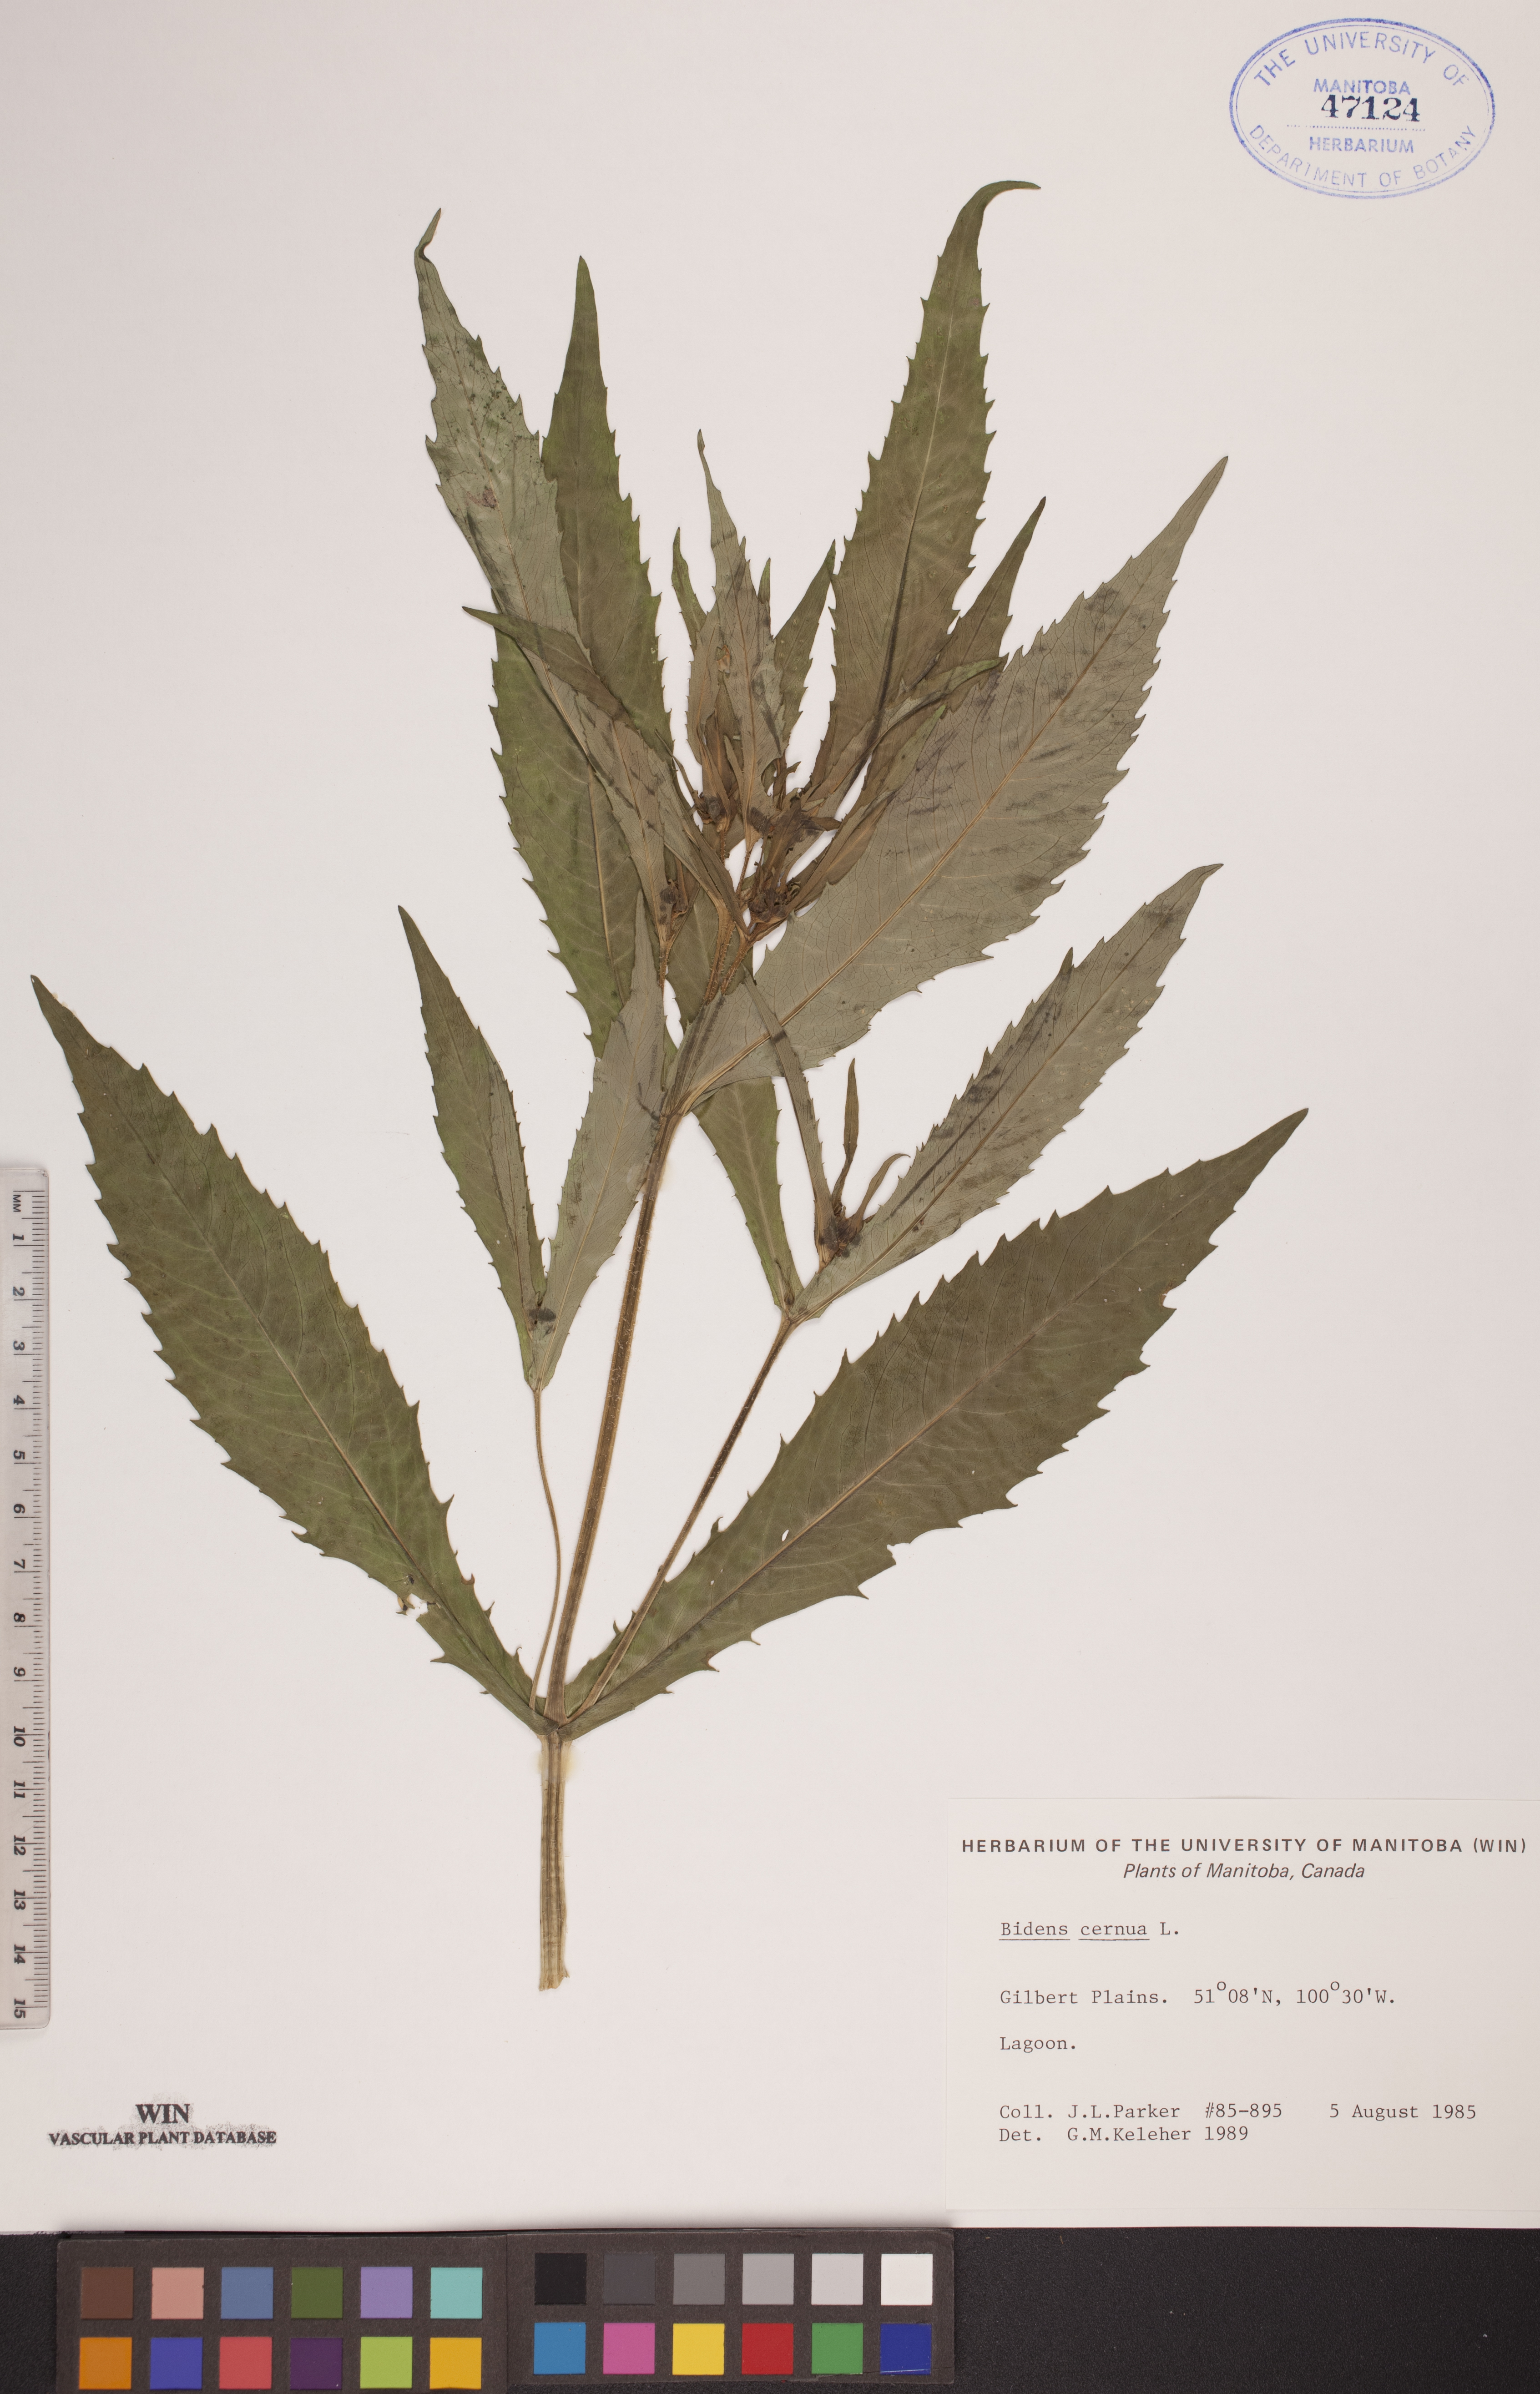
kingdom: Plantae
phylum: Tracheophyta
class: Magnoliopsida
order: Asterales
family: Asteraceae
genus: Bidens
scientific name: Bidens cernua
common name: Nodding bur-marigold
